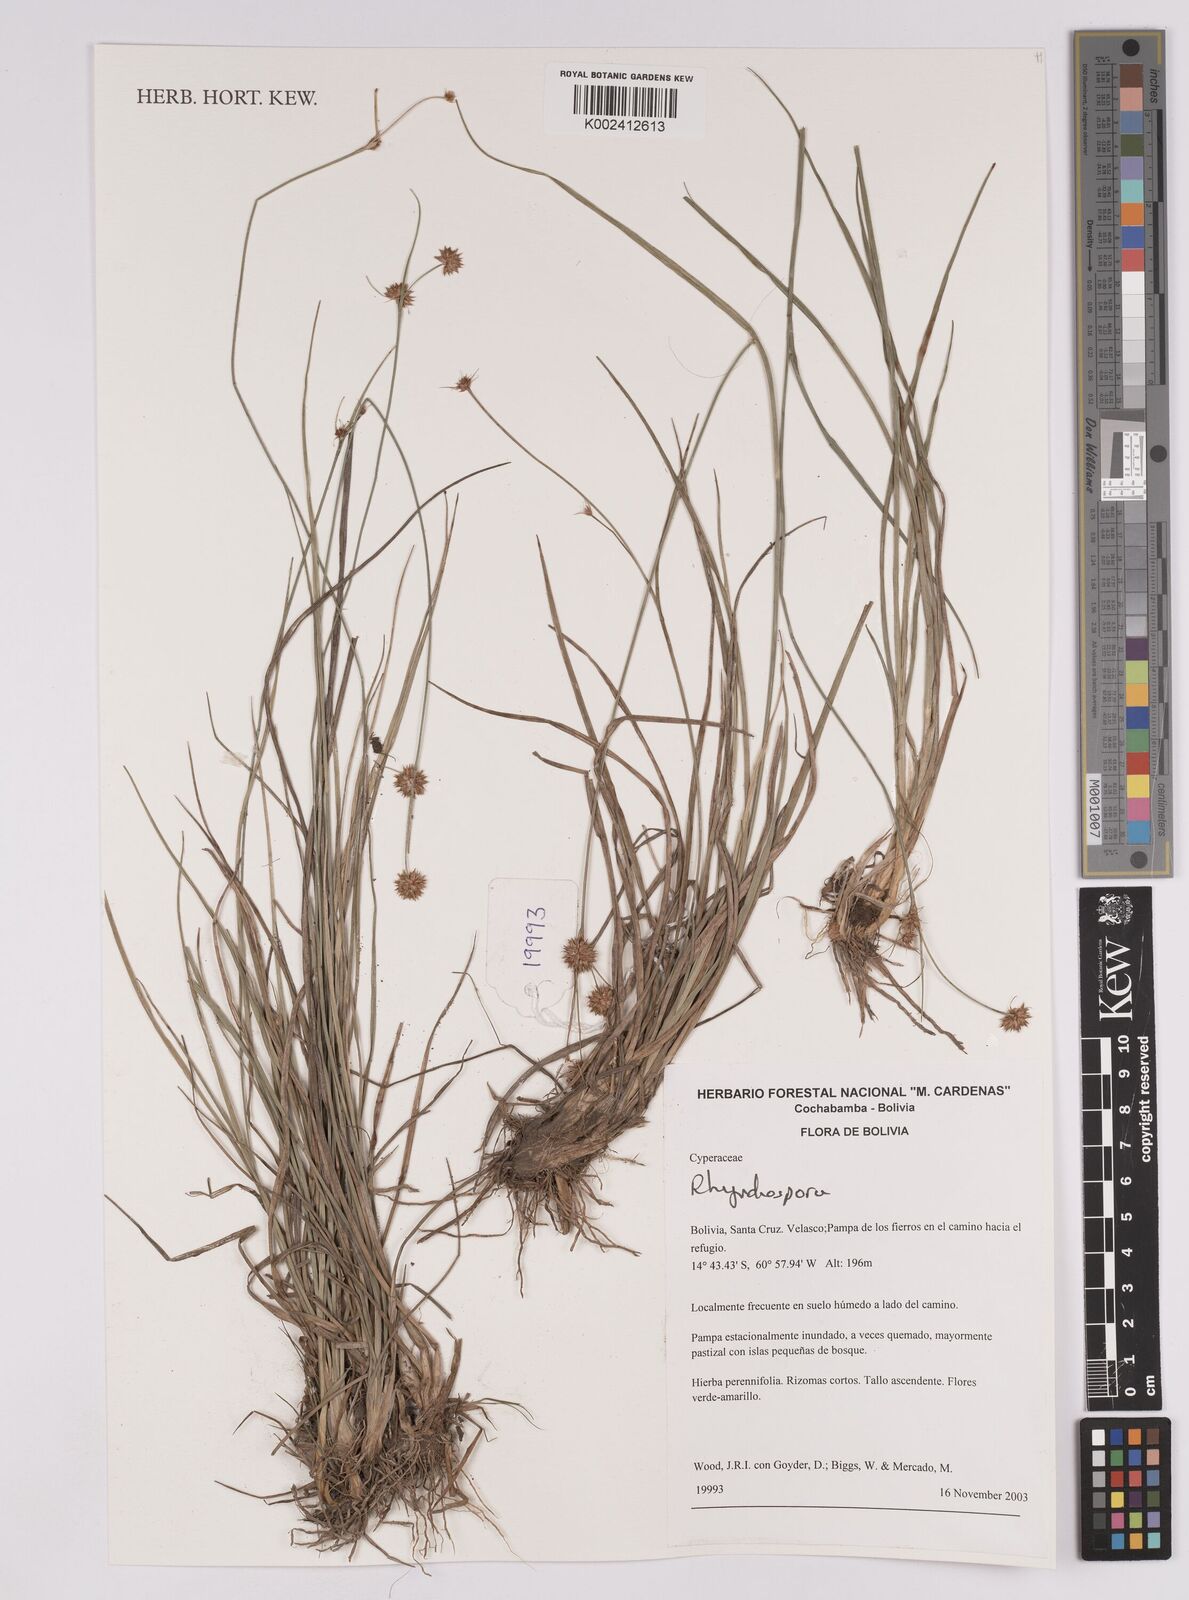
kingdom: Plantae
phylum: Tracheophyta
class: Liliopsida
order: Poales
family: Cyperaceae
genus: Rhynchospora
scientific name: Rhynchospora
